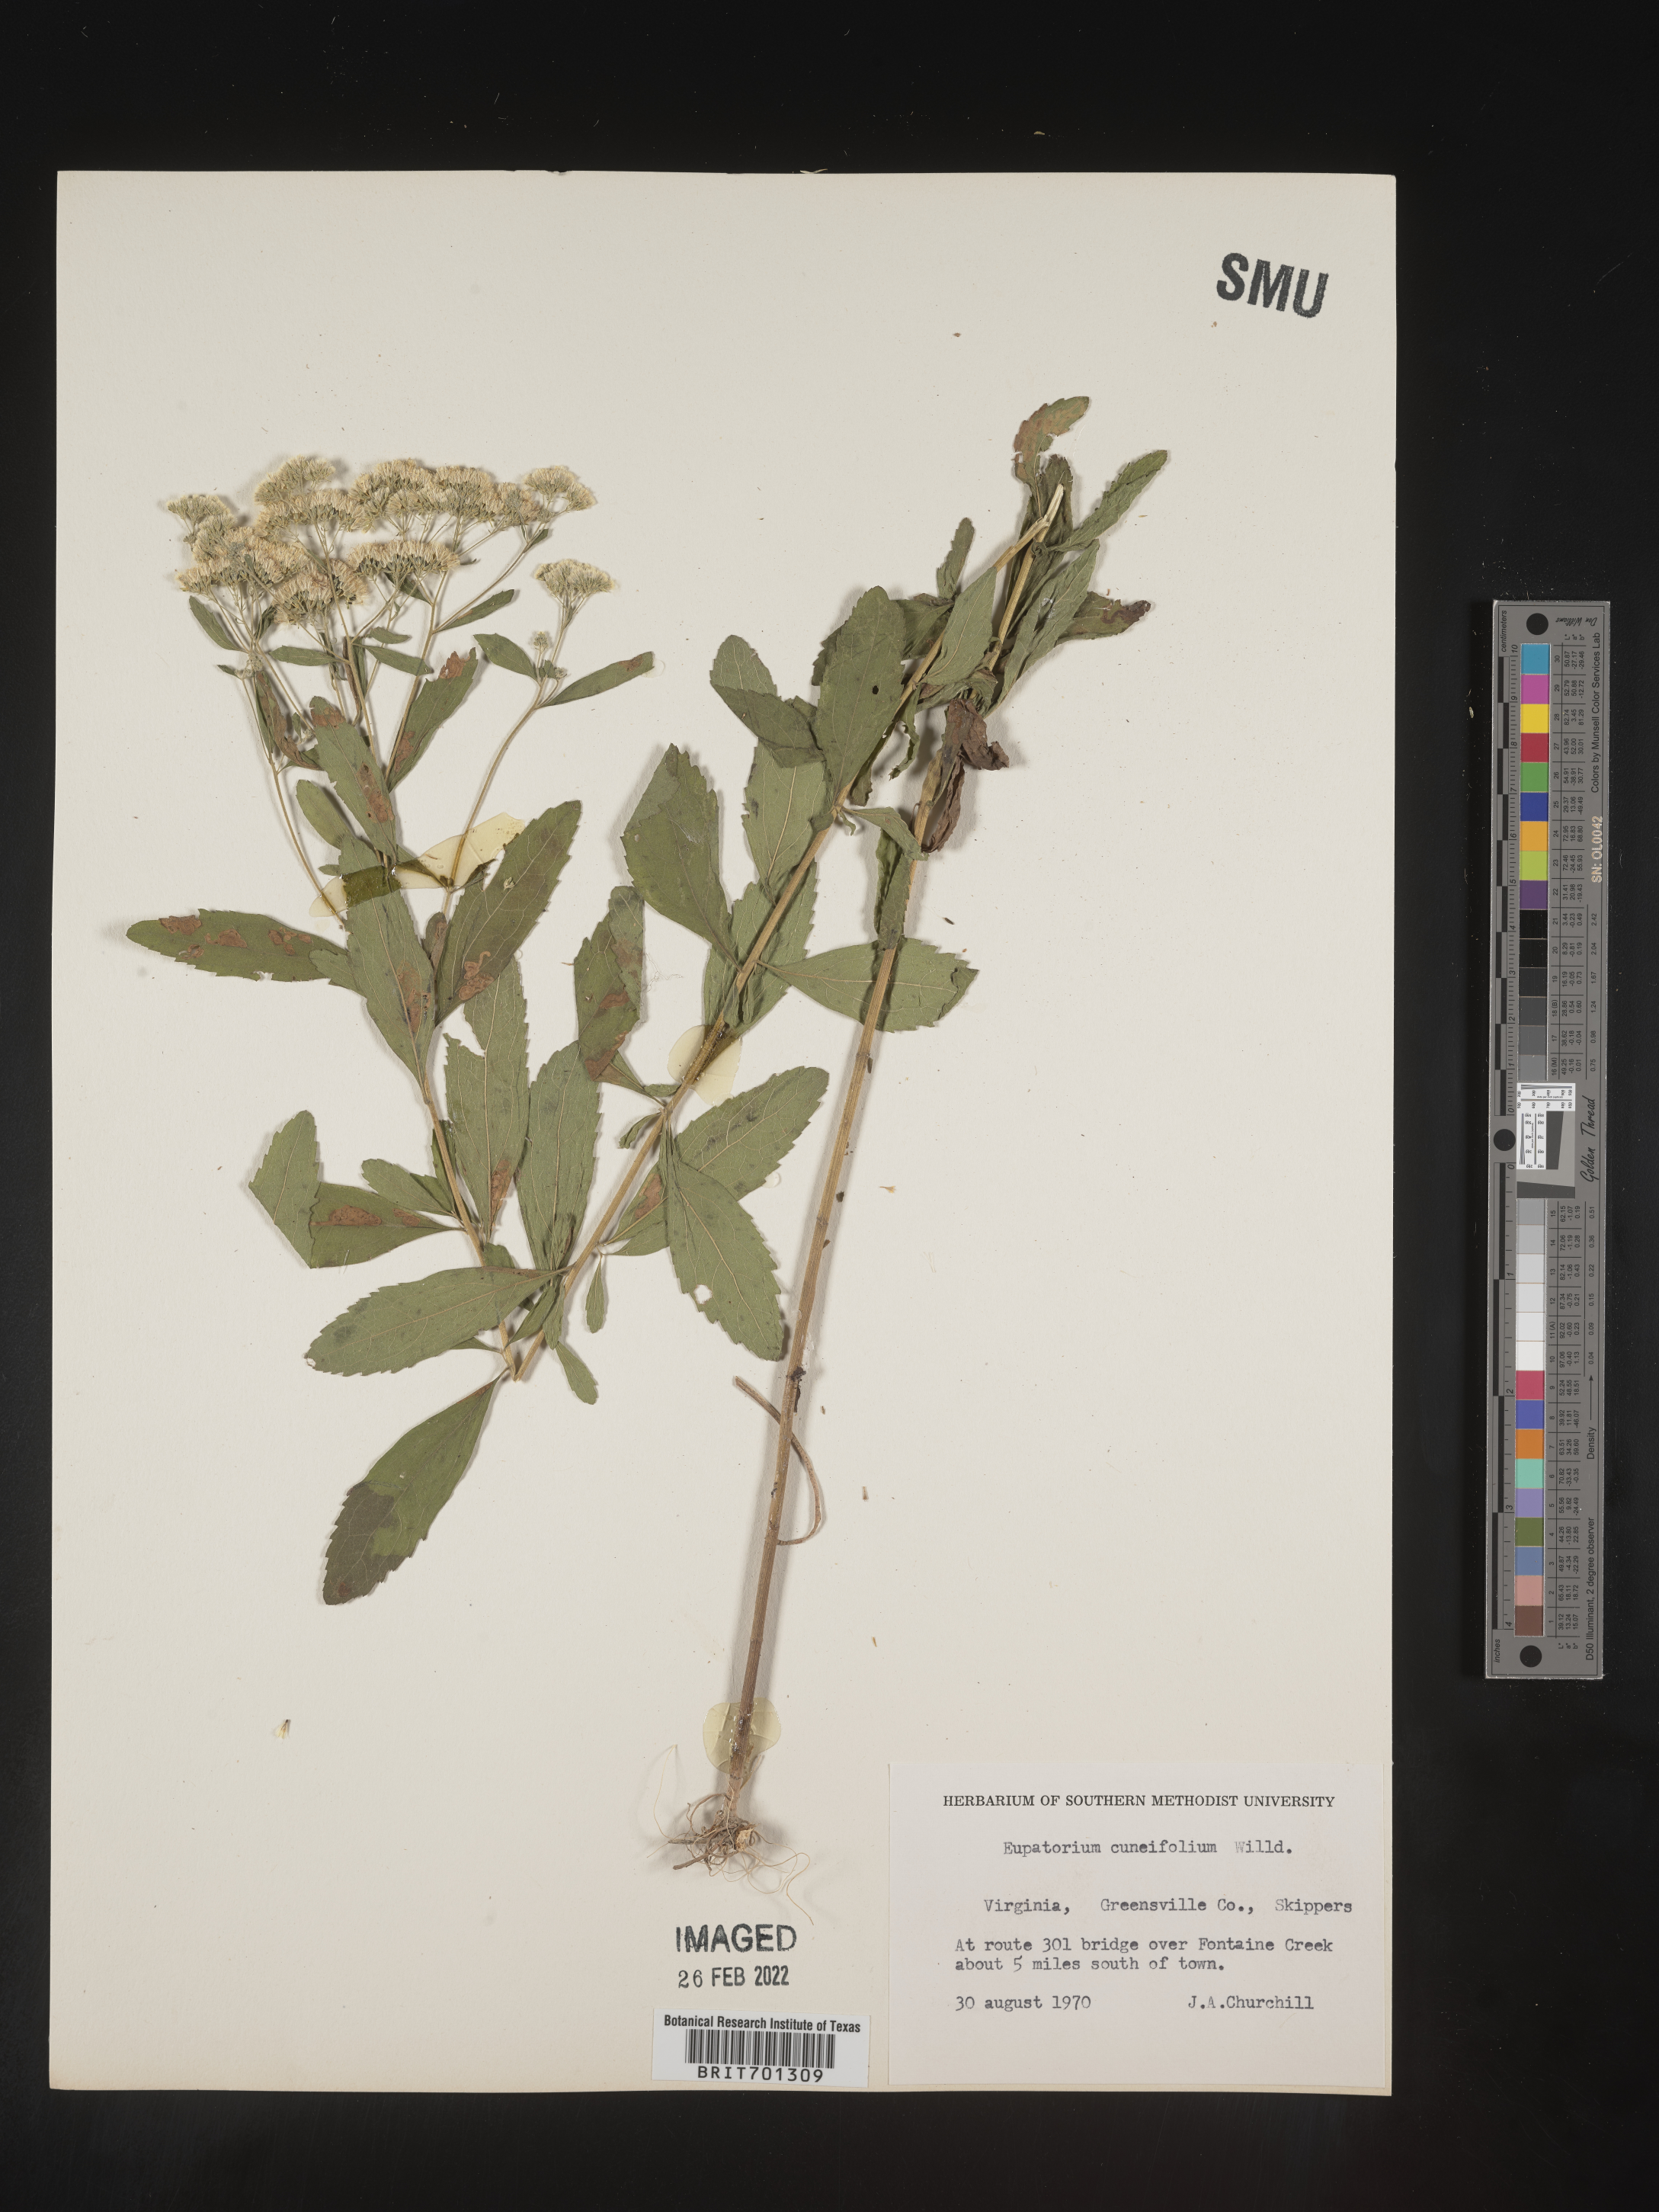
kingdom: Plantae
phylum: Tracheophyta
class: Magnoliopsida
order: Asterales
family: Asteraceae
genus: Eupatorium
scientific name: Eupatorium linearifolium
